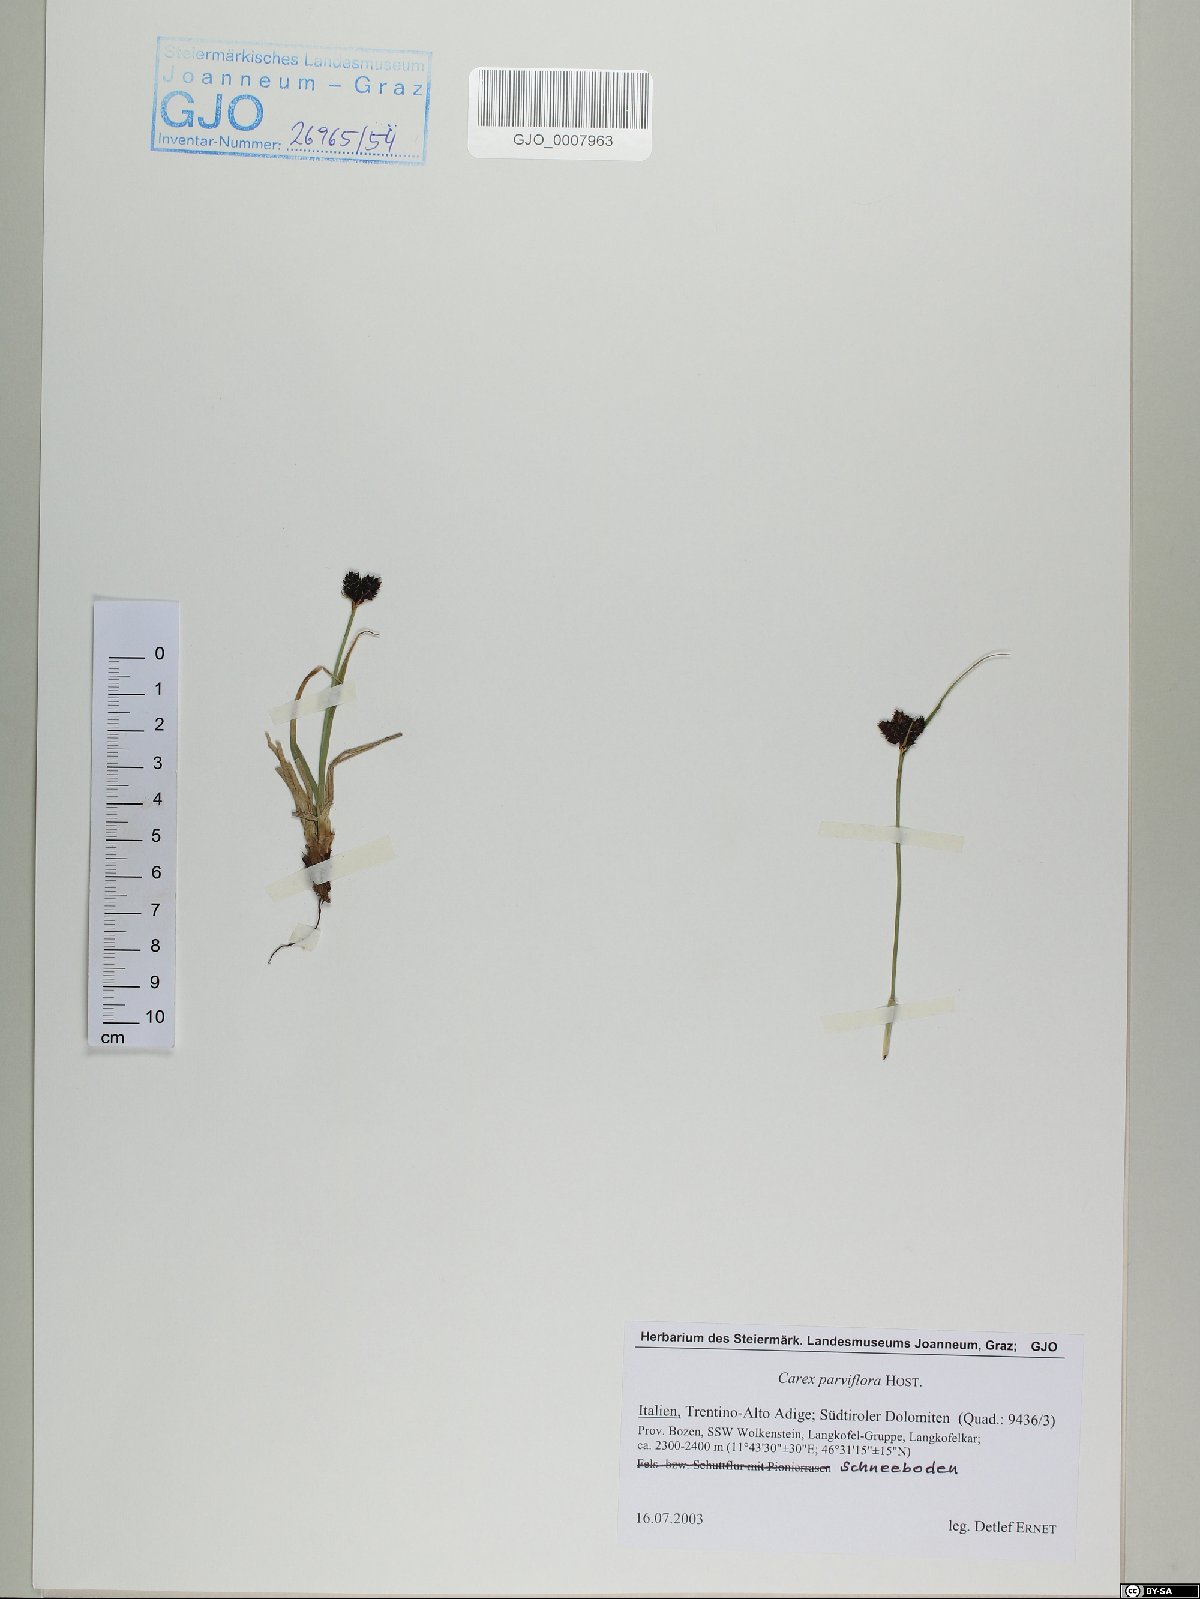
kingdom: Plantae
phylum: Tracheophyta
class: Liliopsida
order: Poales
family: Cyperaceae
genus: Carex
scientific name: Carex parviflora
